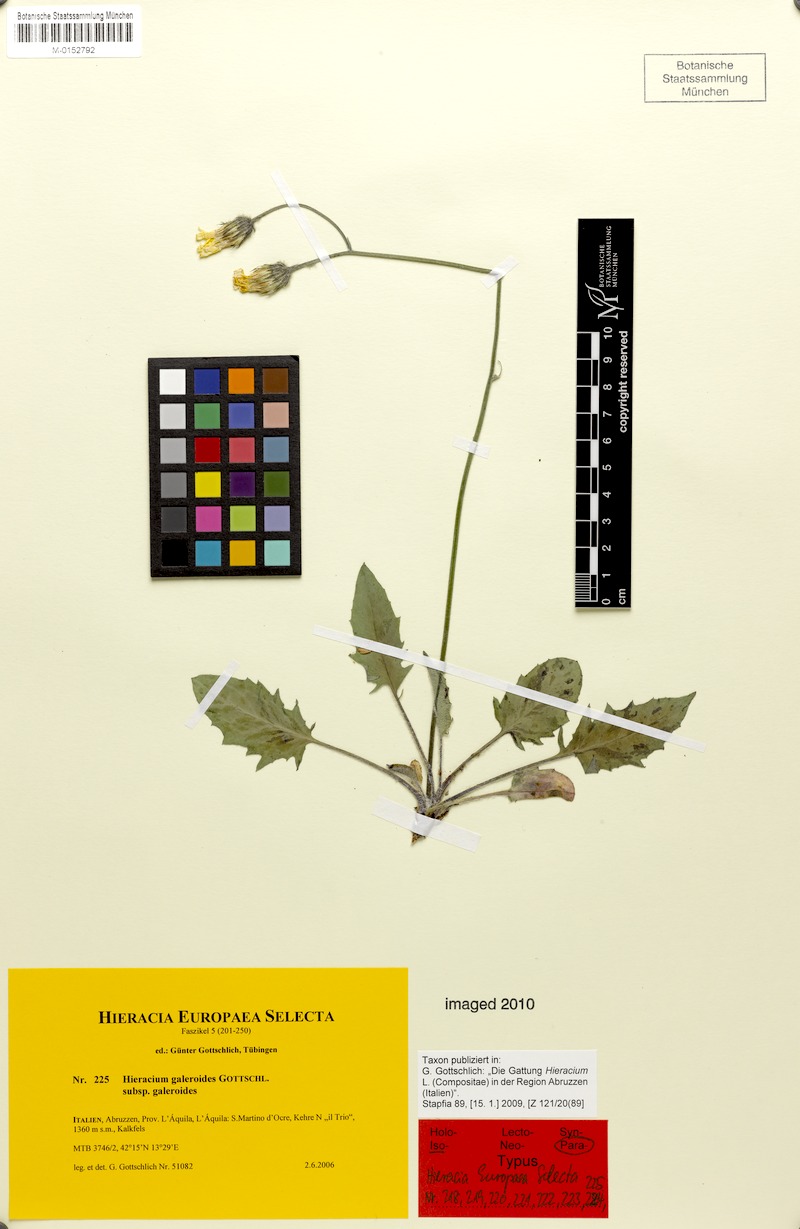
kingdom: Plantae
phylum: Tracheophyta
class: Magnoliopsida
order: Asterales
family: Asteraceae
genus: Hieracium
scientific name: Hieracium galeroides
